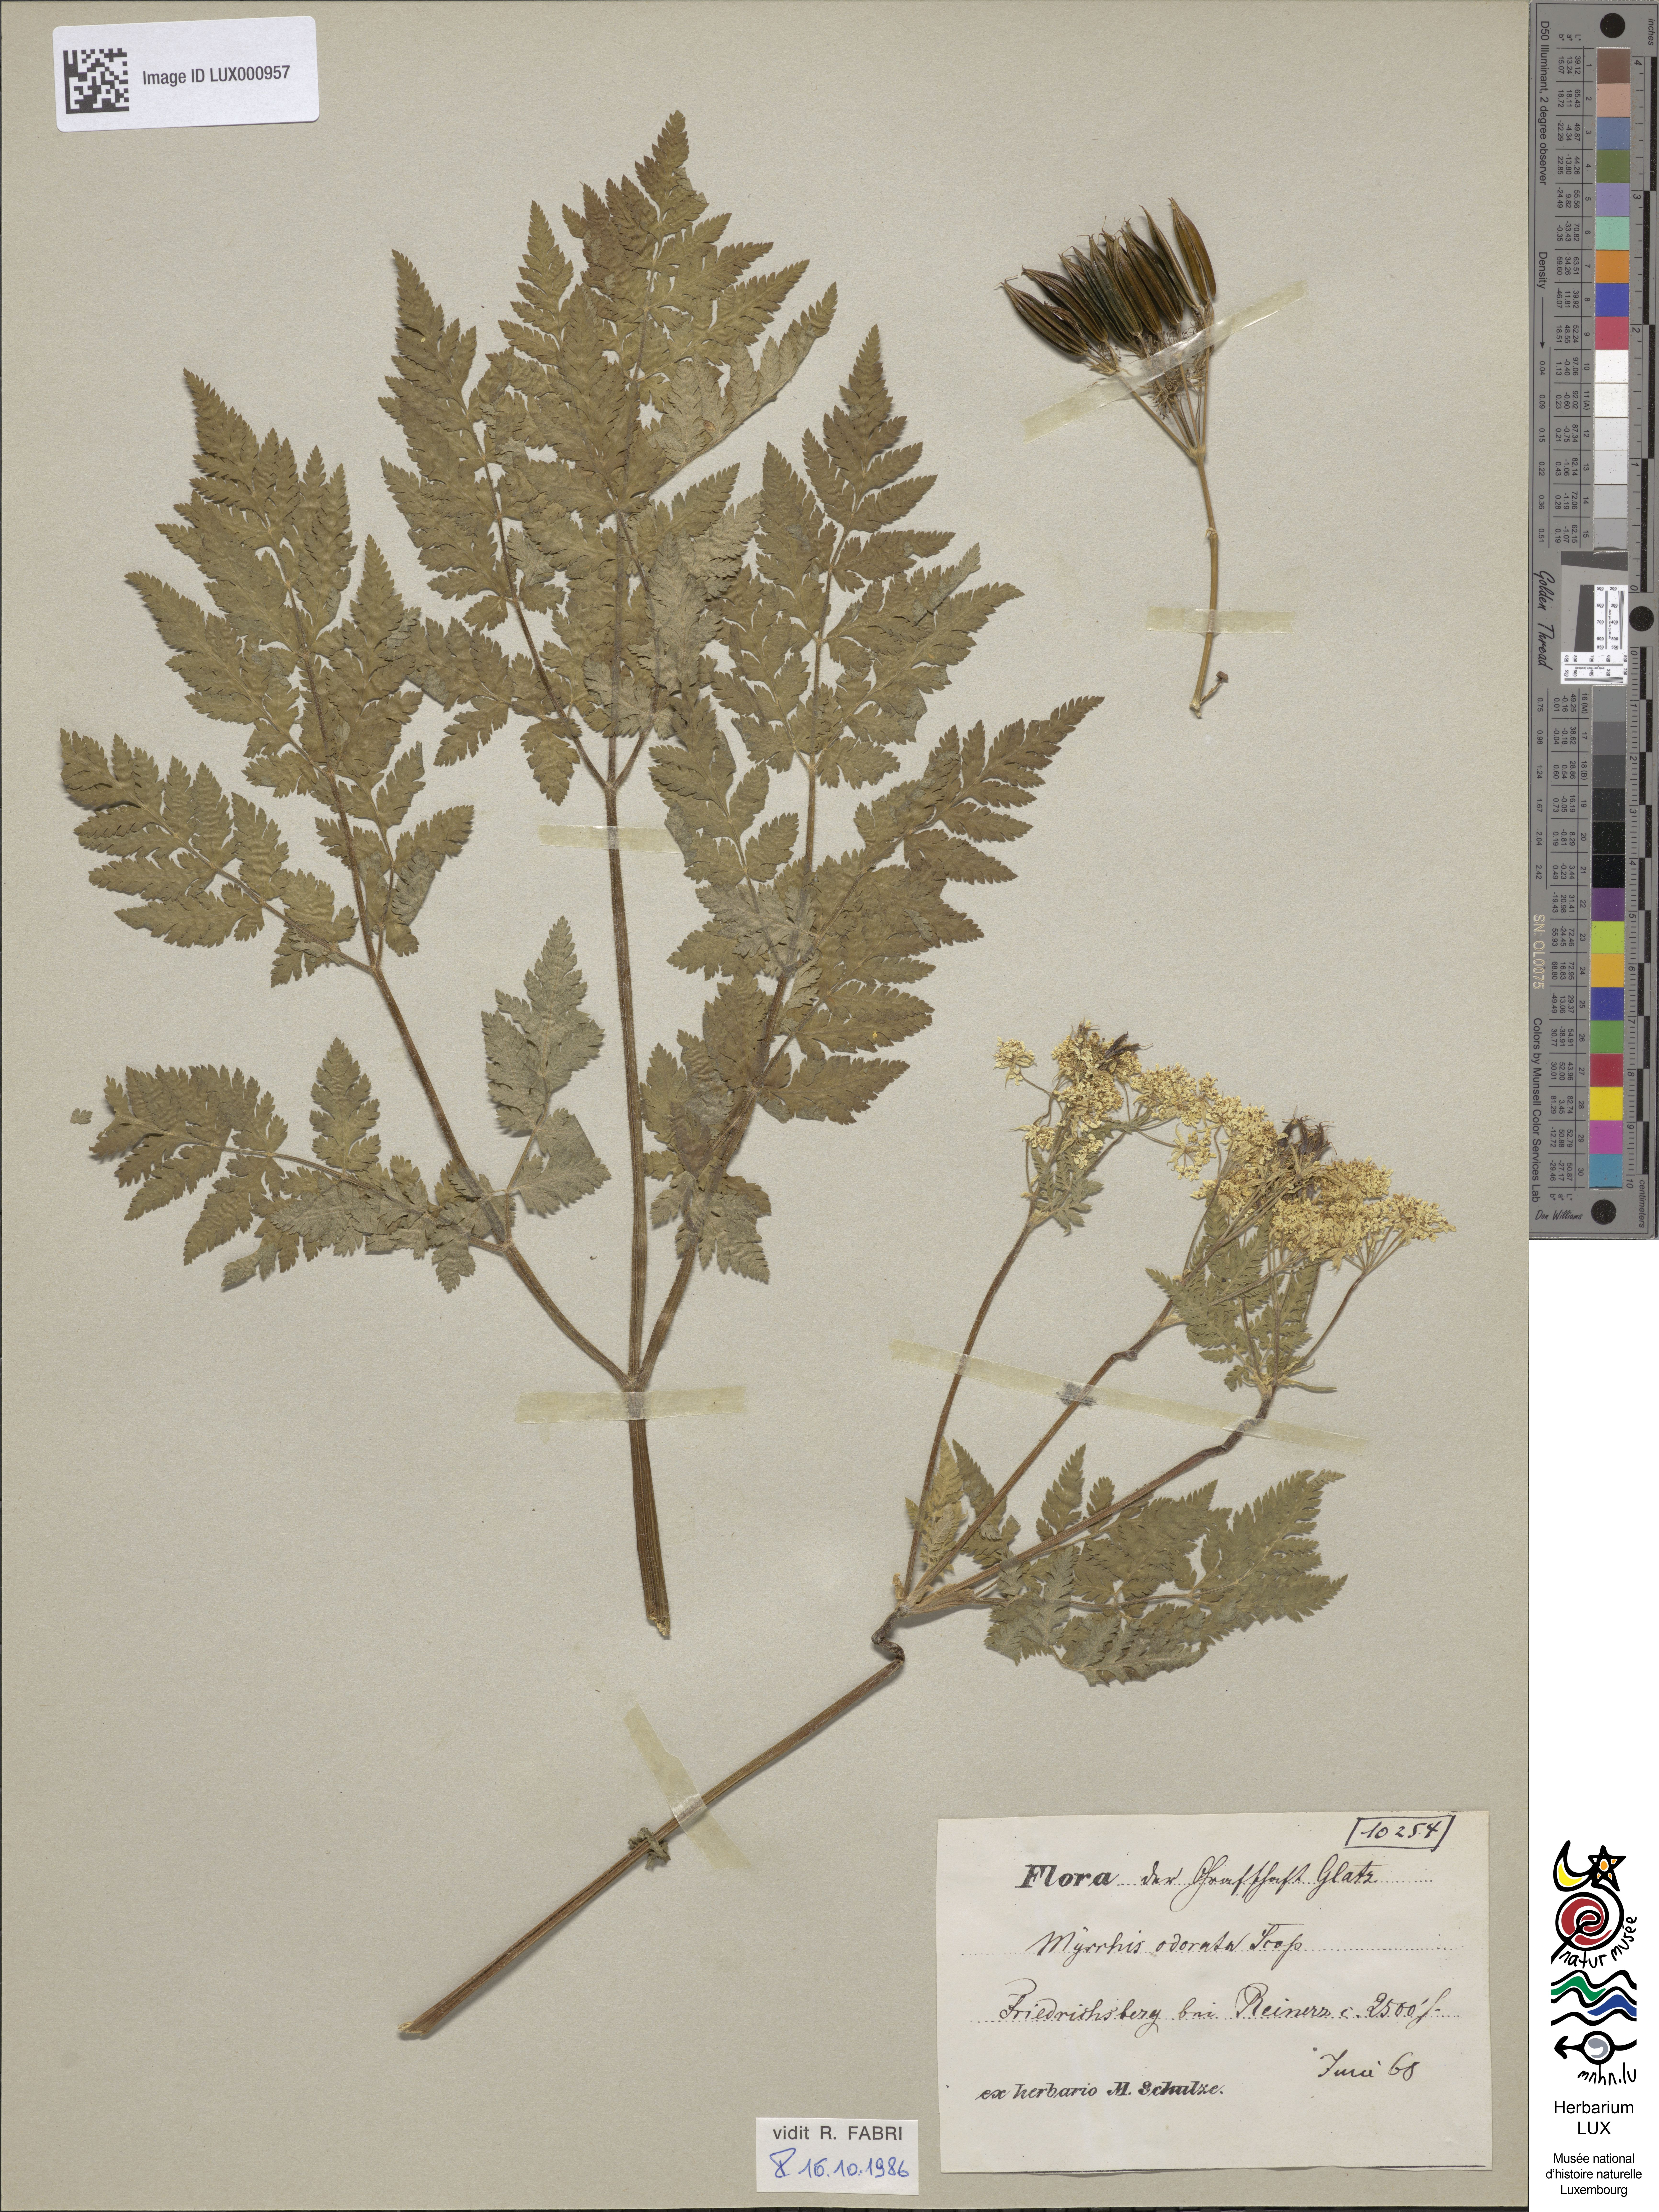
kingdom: Plantae
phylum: Tracheophyta
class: Magnoliopsida
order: Apiales
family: Apiaceae
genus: Myrrhis
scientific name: Myrrhis odorata
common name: Sweet cicely
